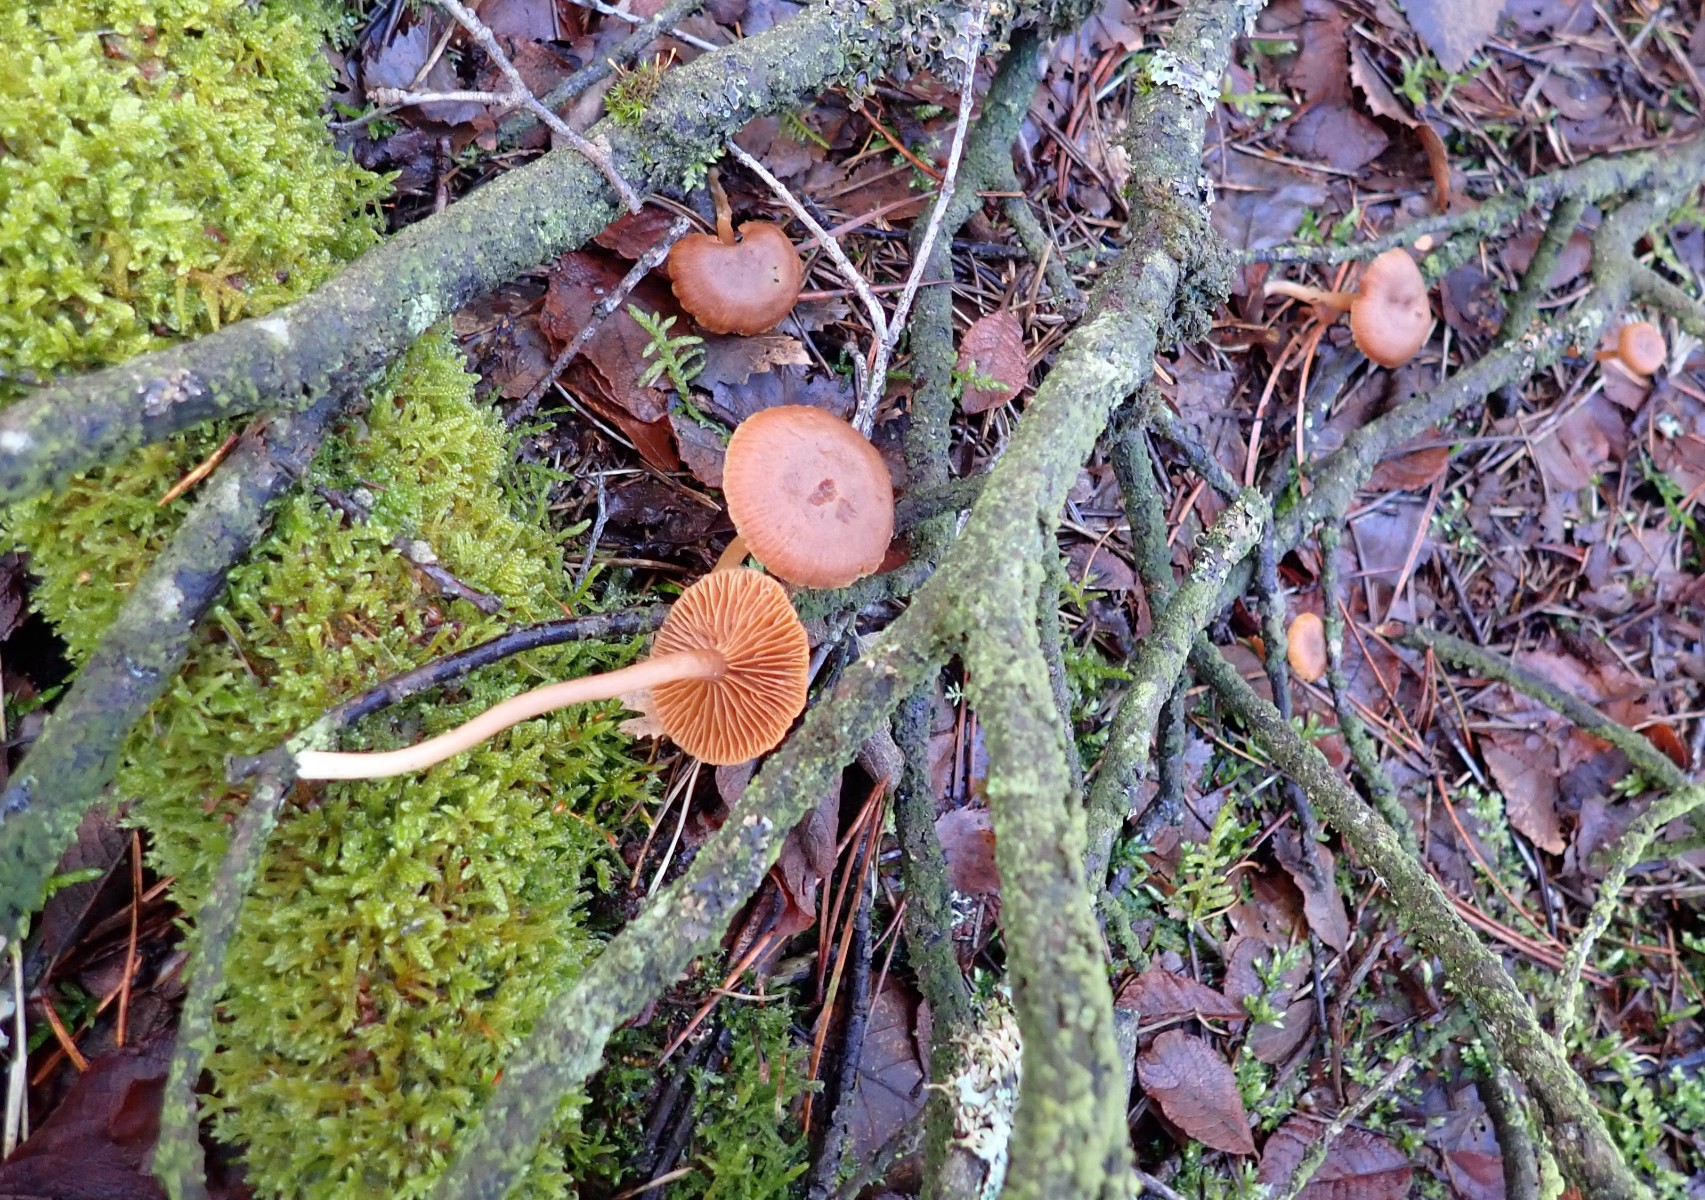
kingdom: Fungi
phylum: Basidiomycota
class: Agaricomycetes
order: Agaricales
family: Tubariaceae
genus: Tubaria
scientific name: Tubaria furfuracea
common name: kliddet fnughat
